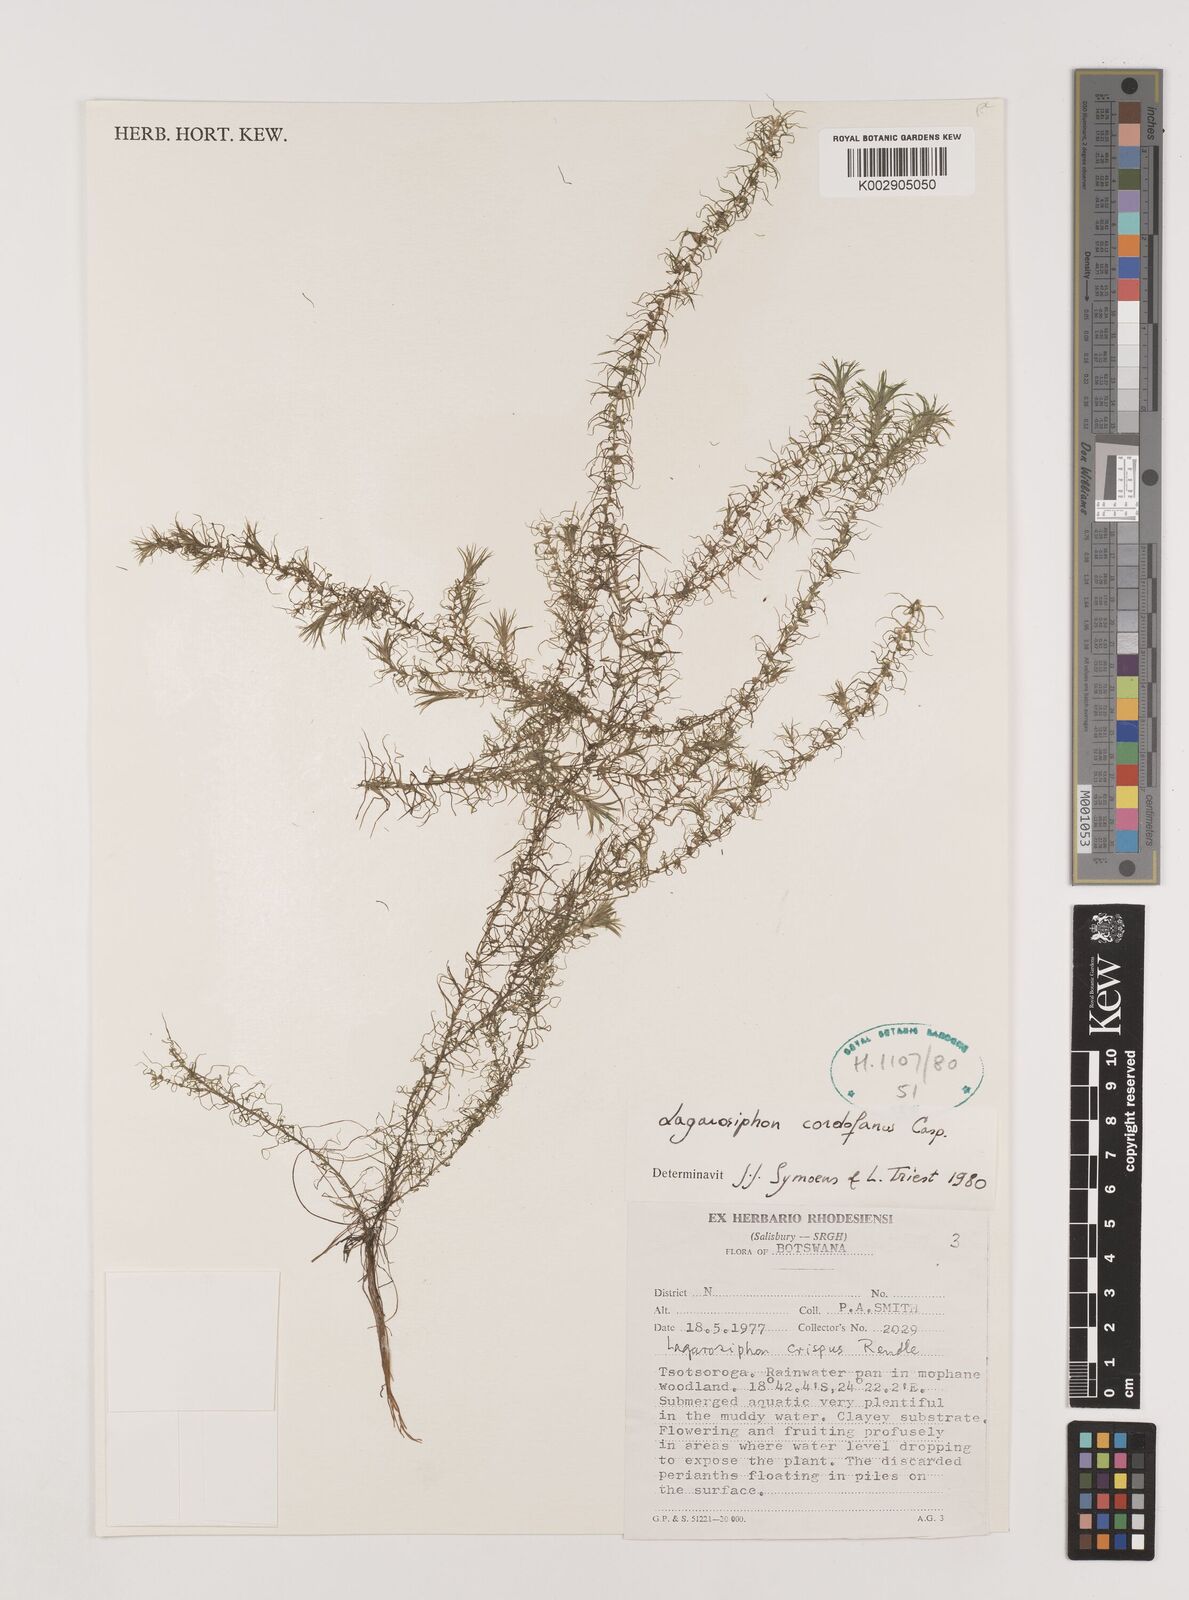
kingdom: Plantae
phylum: Tracheophyta
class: Liliopsida
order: Alismatales
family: Hydrocharitaceae
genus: Lagarosiphon
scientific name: Lagarosiphon cordofanus
